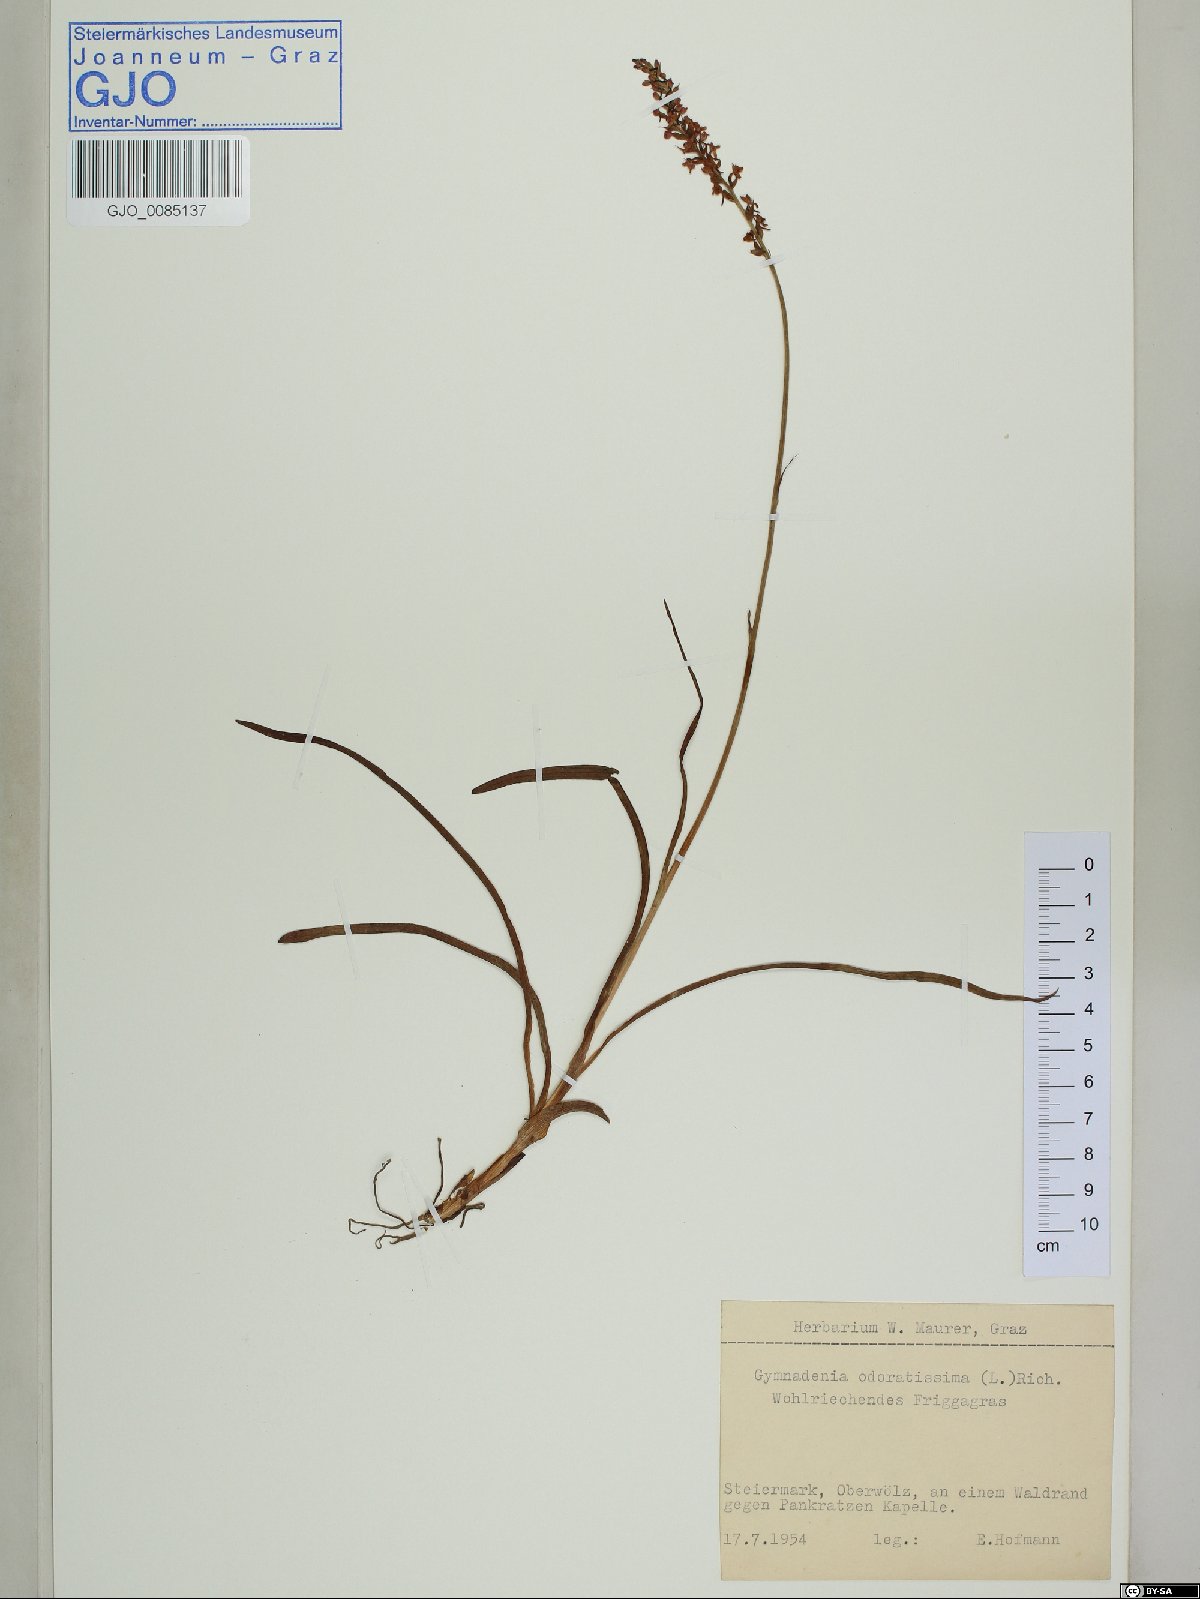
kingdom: Plantae
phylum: Tracheophyta
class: Liliopsida
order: Asparagales
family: Orchidaceae
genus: Goodyera
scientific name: Goodyera repens
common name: Creeping lady's-tresses
